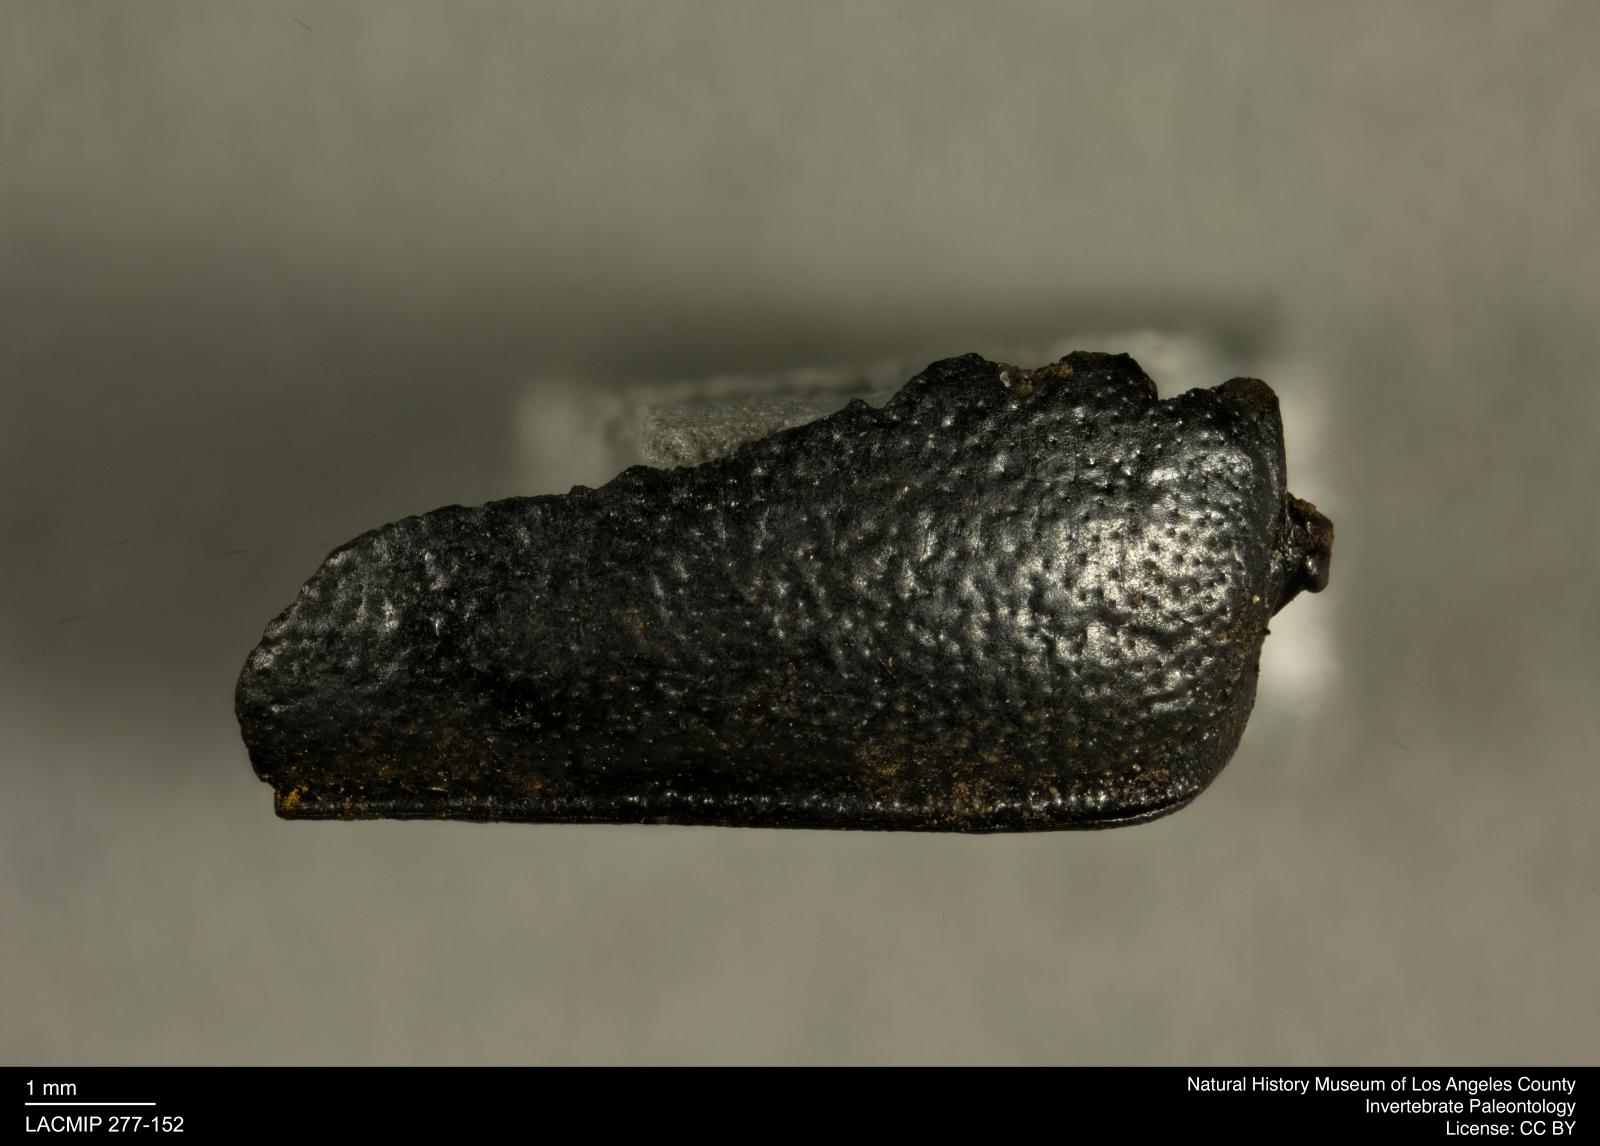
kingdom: Animalia
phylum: Arthropoda
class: Insecta
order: Coleoptera
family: Tenebrionidae
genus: Coniontis
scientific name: Coniontis abdominalis
